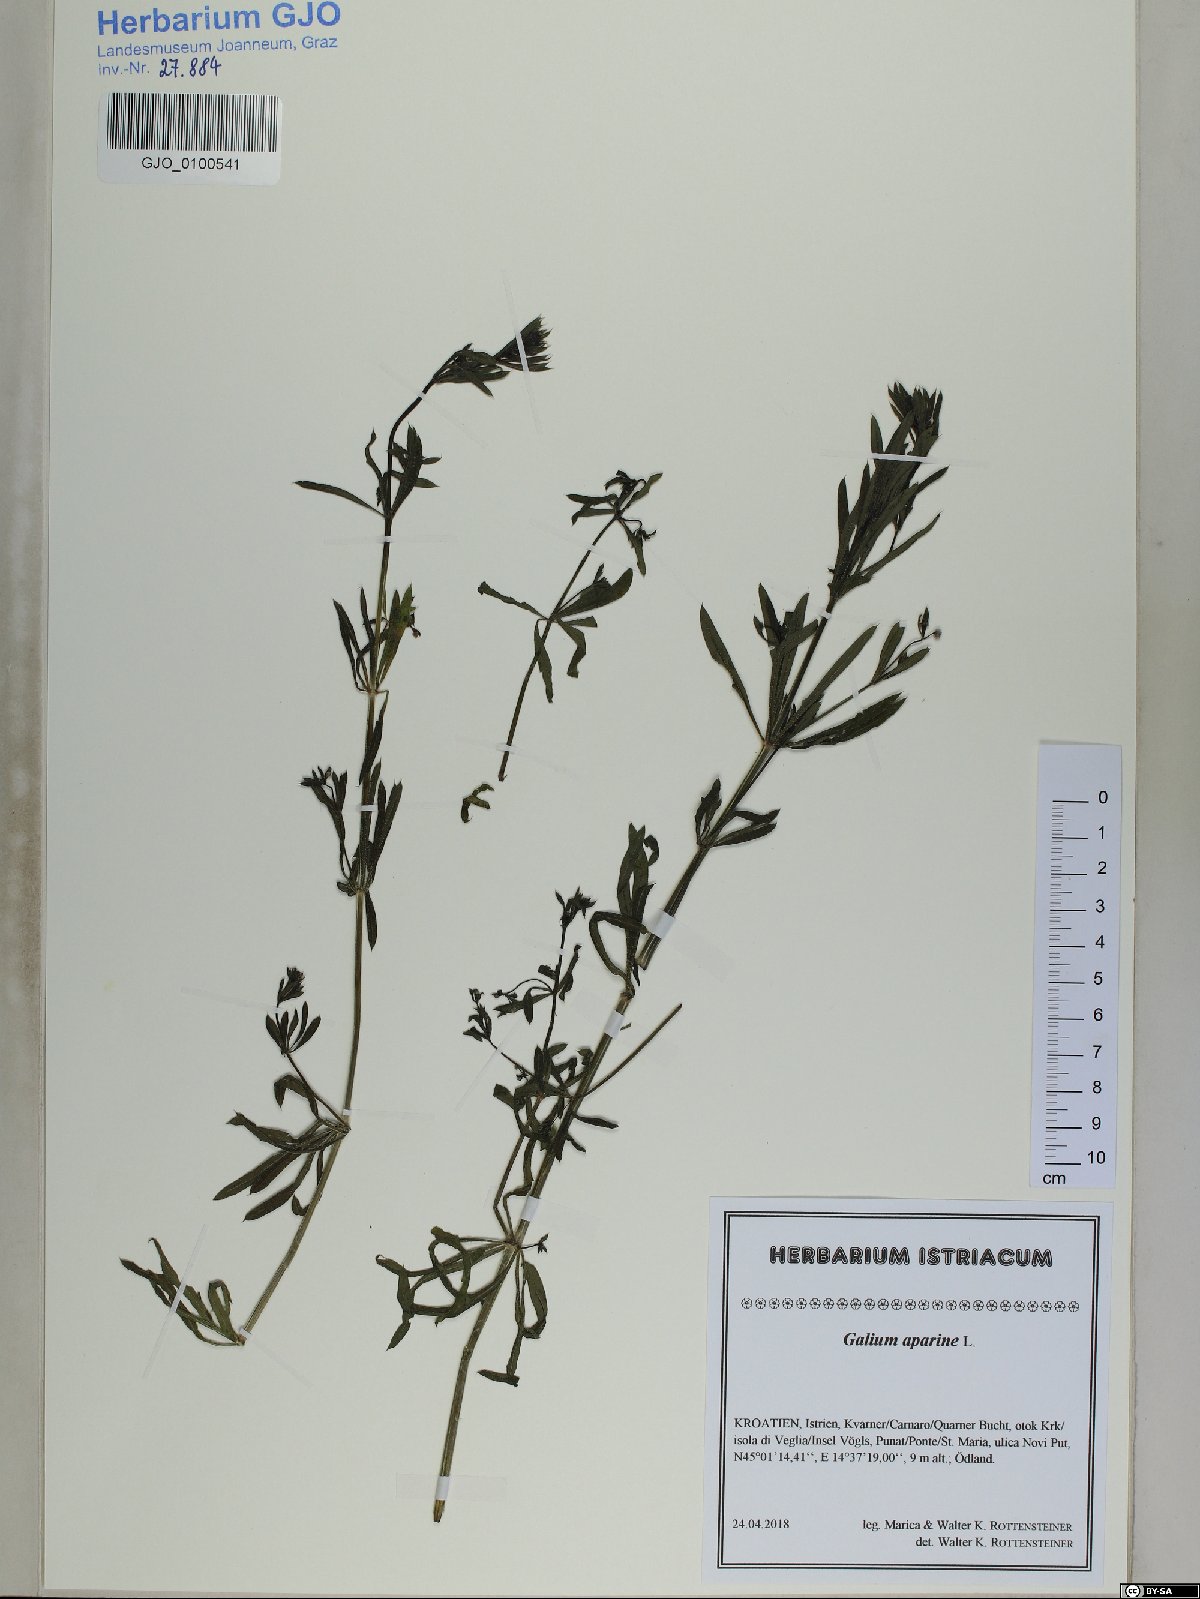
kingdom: Plantae
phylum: Tracheophyta
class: Magnoliopsida
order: Gentianales
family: Rubiaceae
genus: Galium
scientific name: Galium aparine
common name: Cleavers
